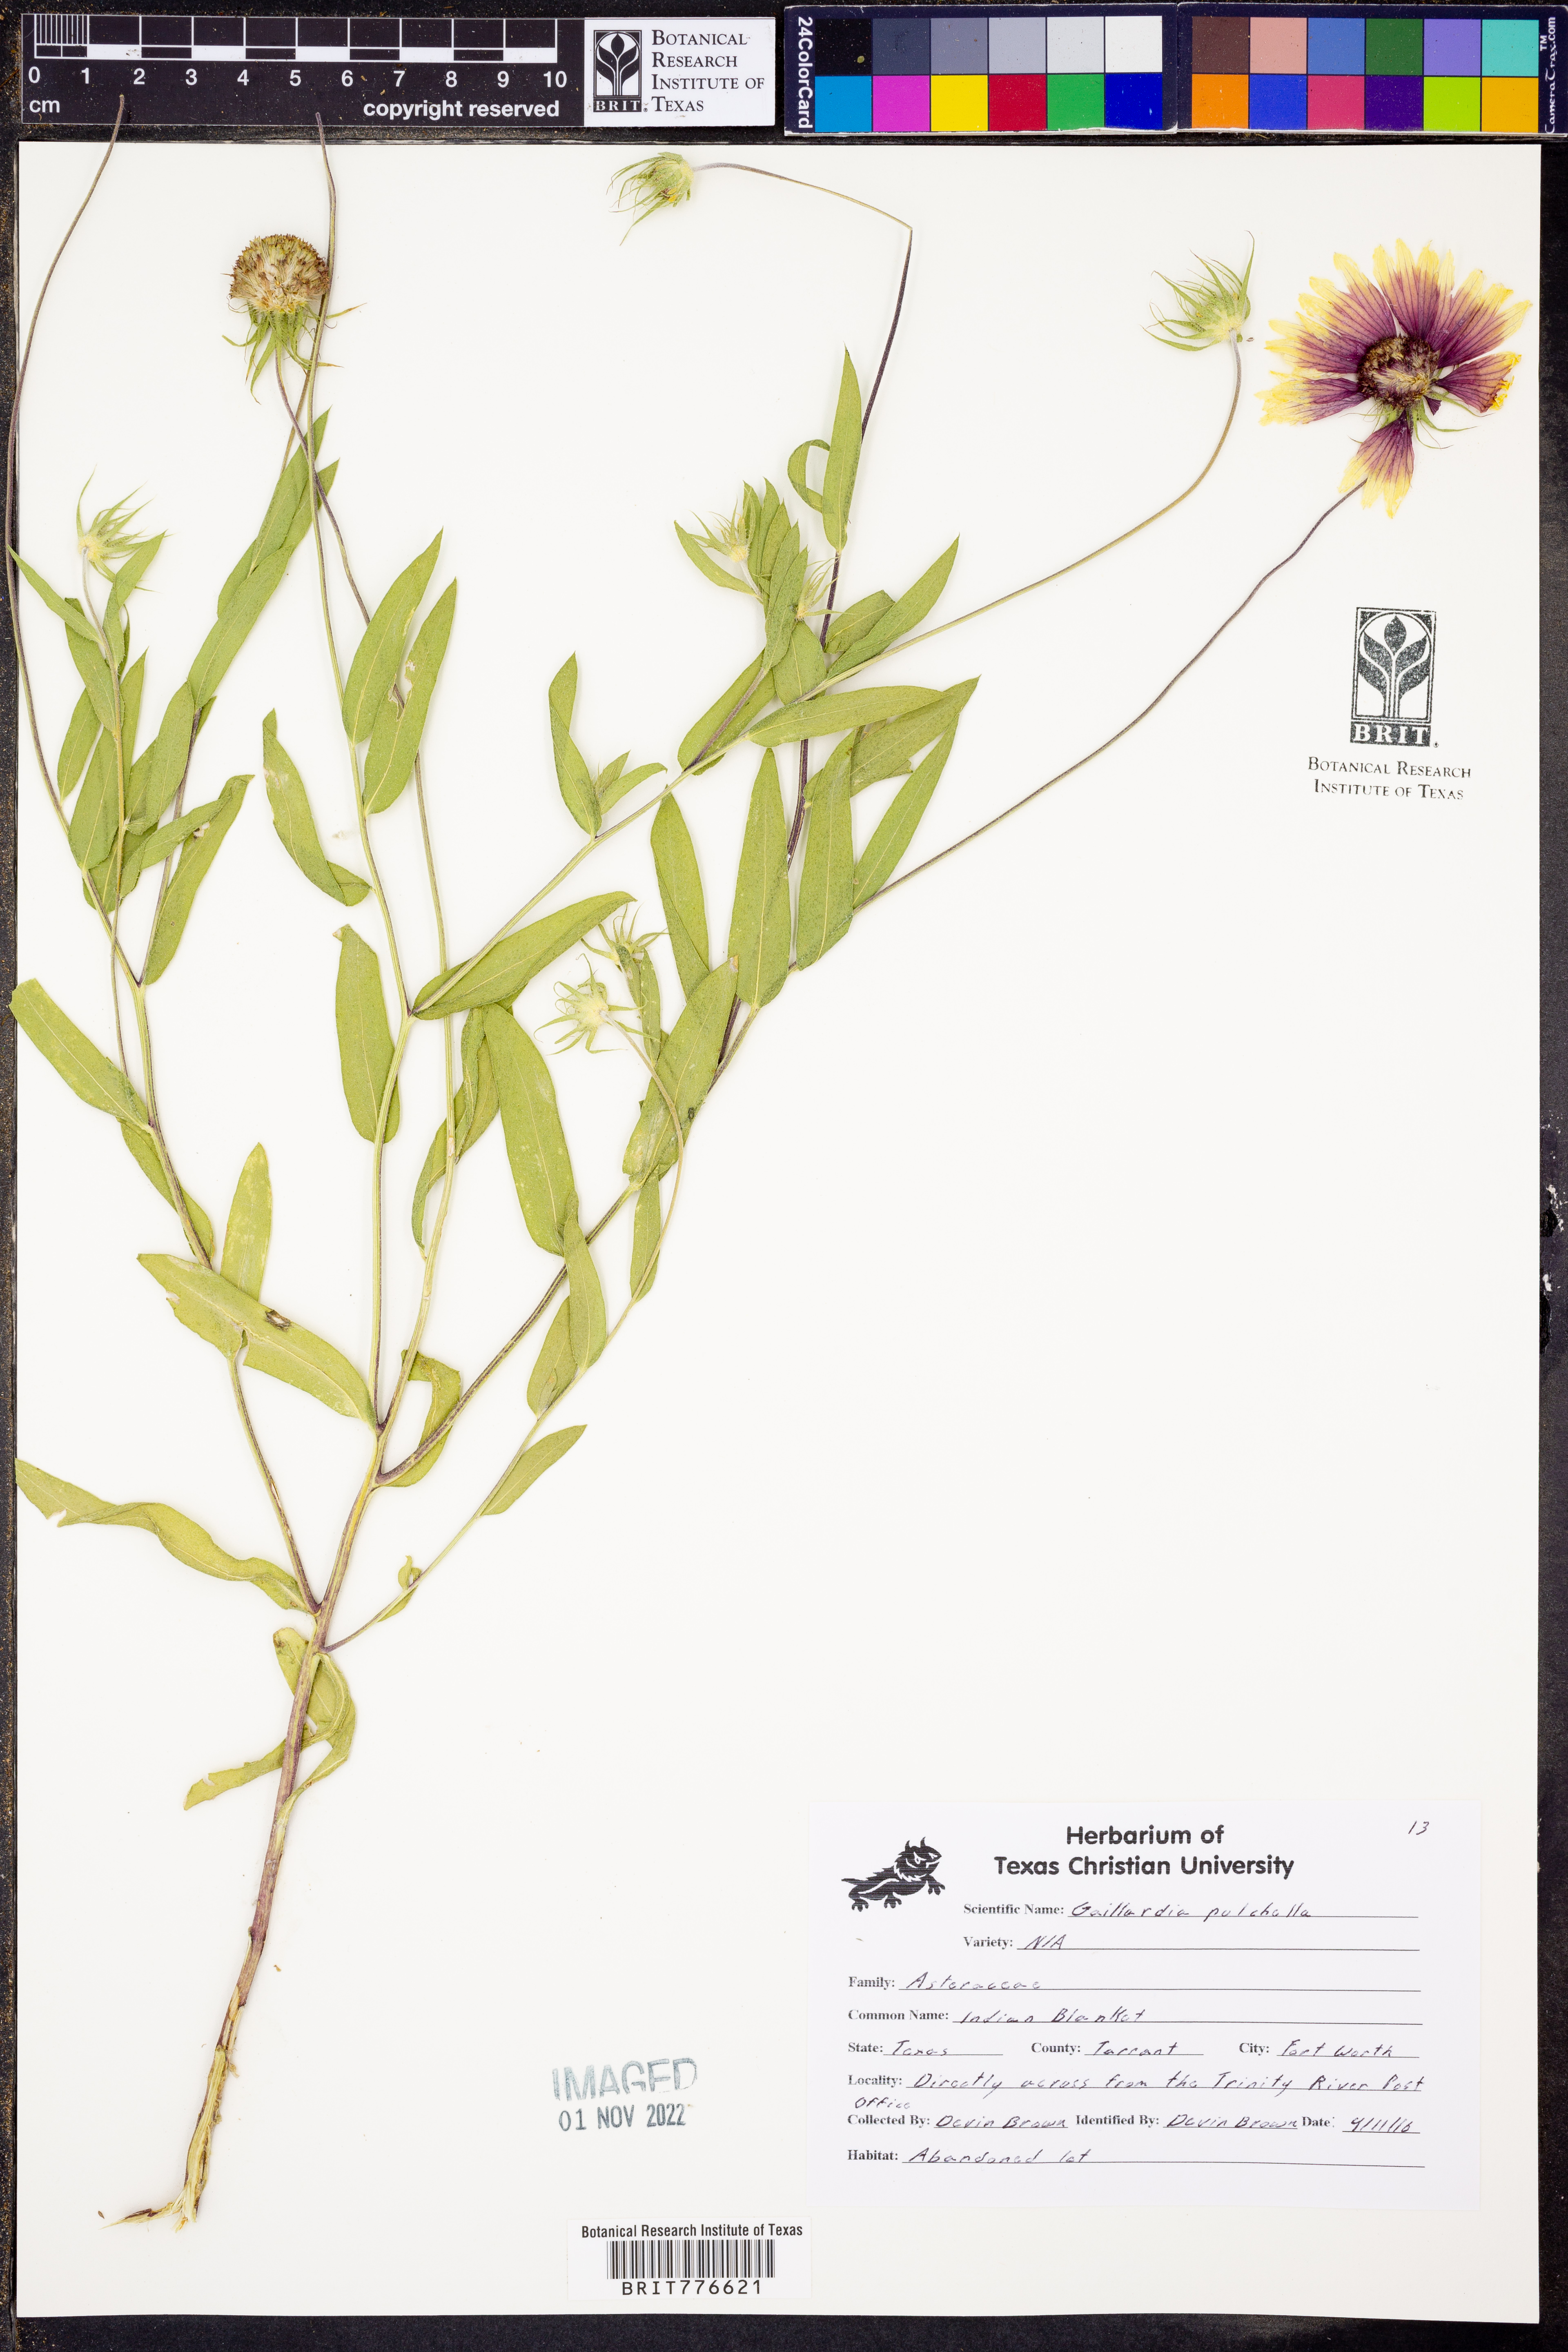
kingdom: Plantae
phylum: Tracheophyta
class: Magnoliopsida
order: Asterales
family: Asteraceae
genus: Gaillardia
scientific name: Gaillardia pulchella
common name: Firewheel
